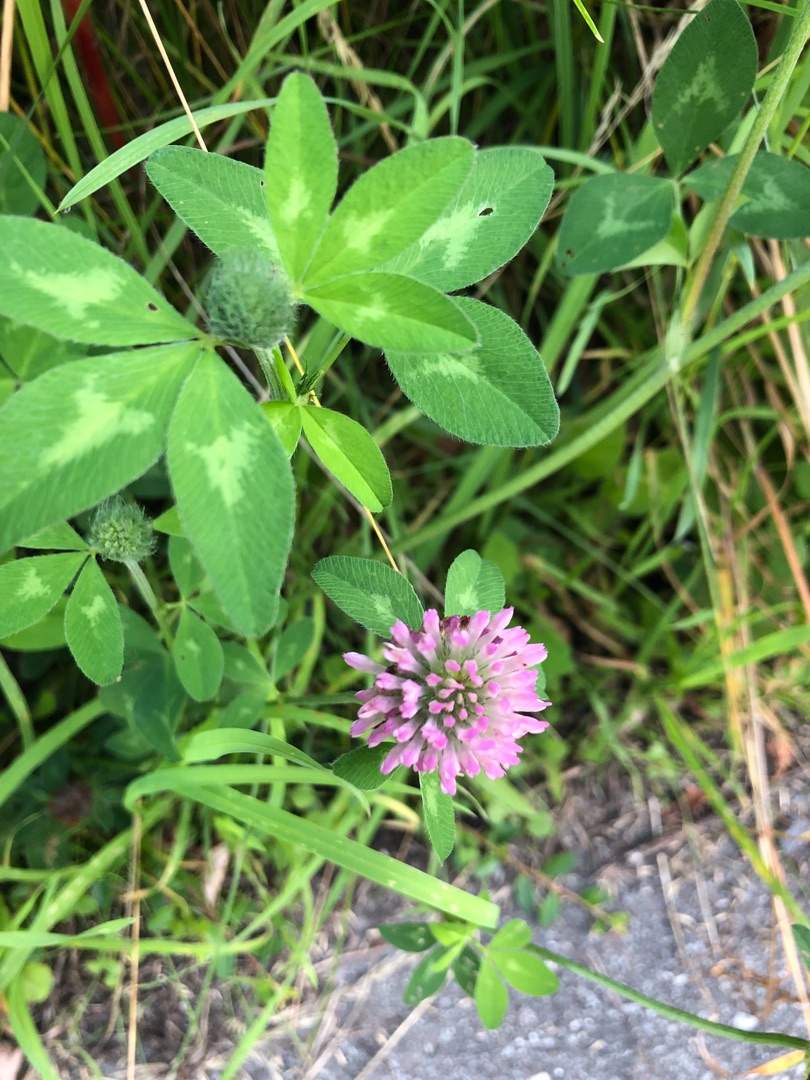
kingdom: Plantae
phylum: Tracheophyta
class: Magnoliopsida
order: Fabales
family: Fabaceae
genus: Trifolium
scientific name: Trifolium pratense
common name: Rød-kløver
